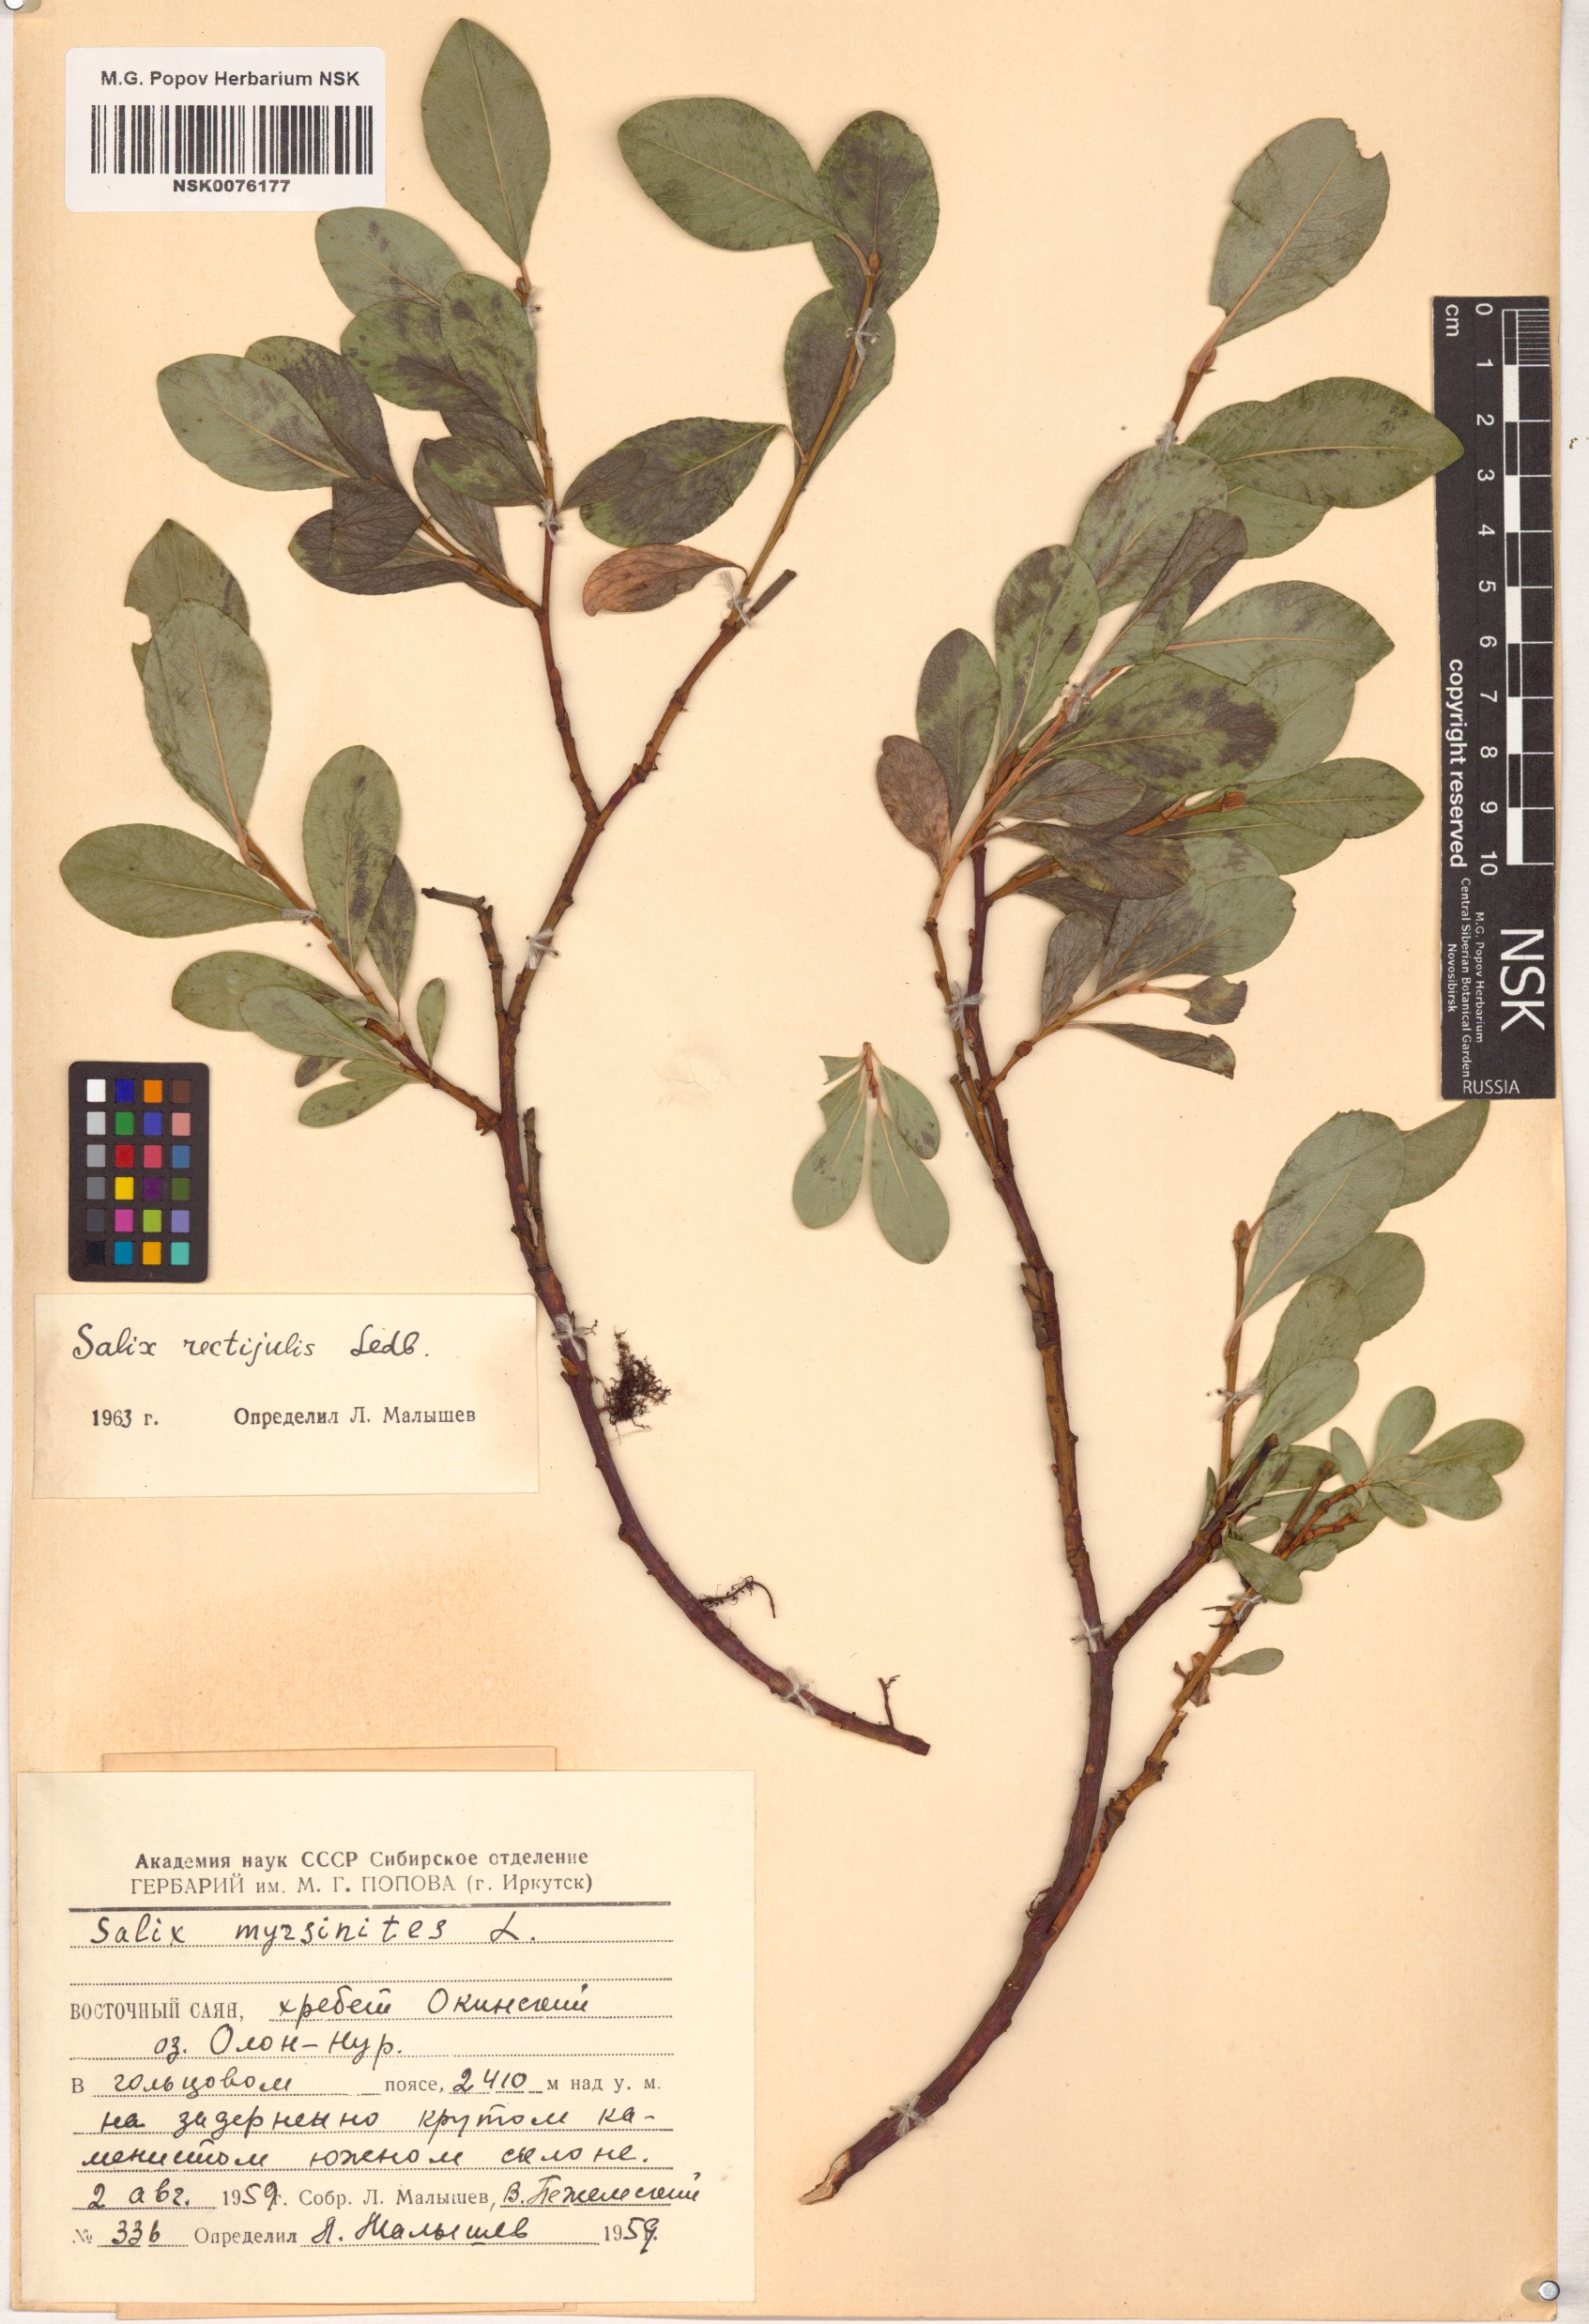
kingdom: Plantae
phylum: Tracheophyta
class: Magnoliopsida
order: Malpighiales
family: Salicaceae
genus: Salix
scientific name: Salix rectijulis
